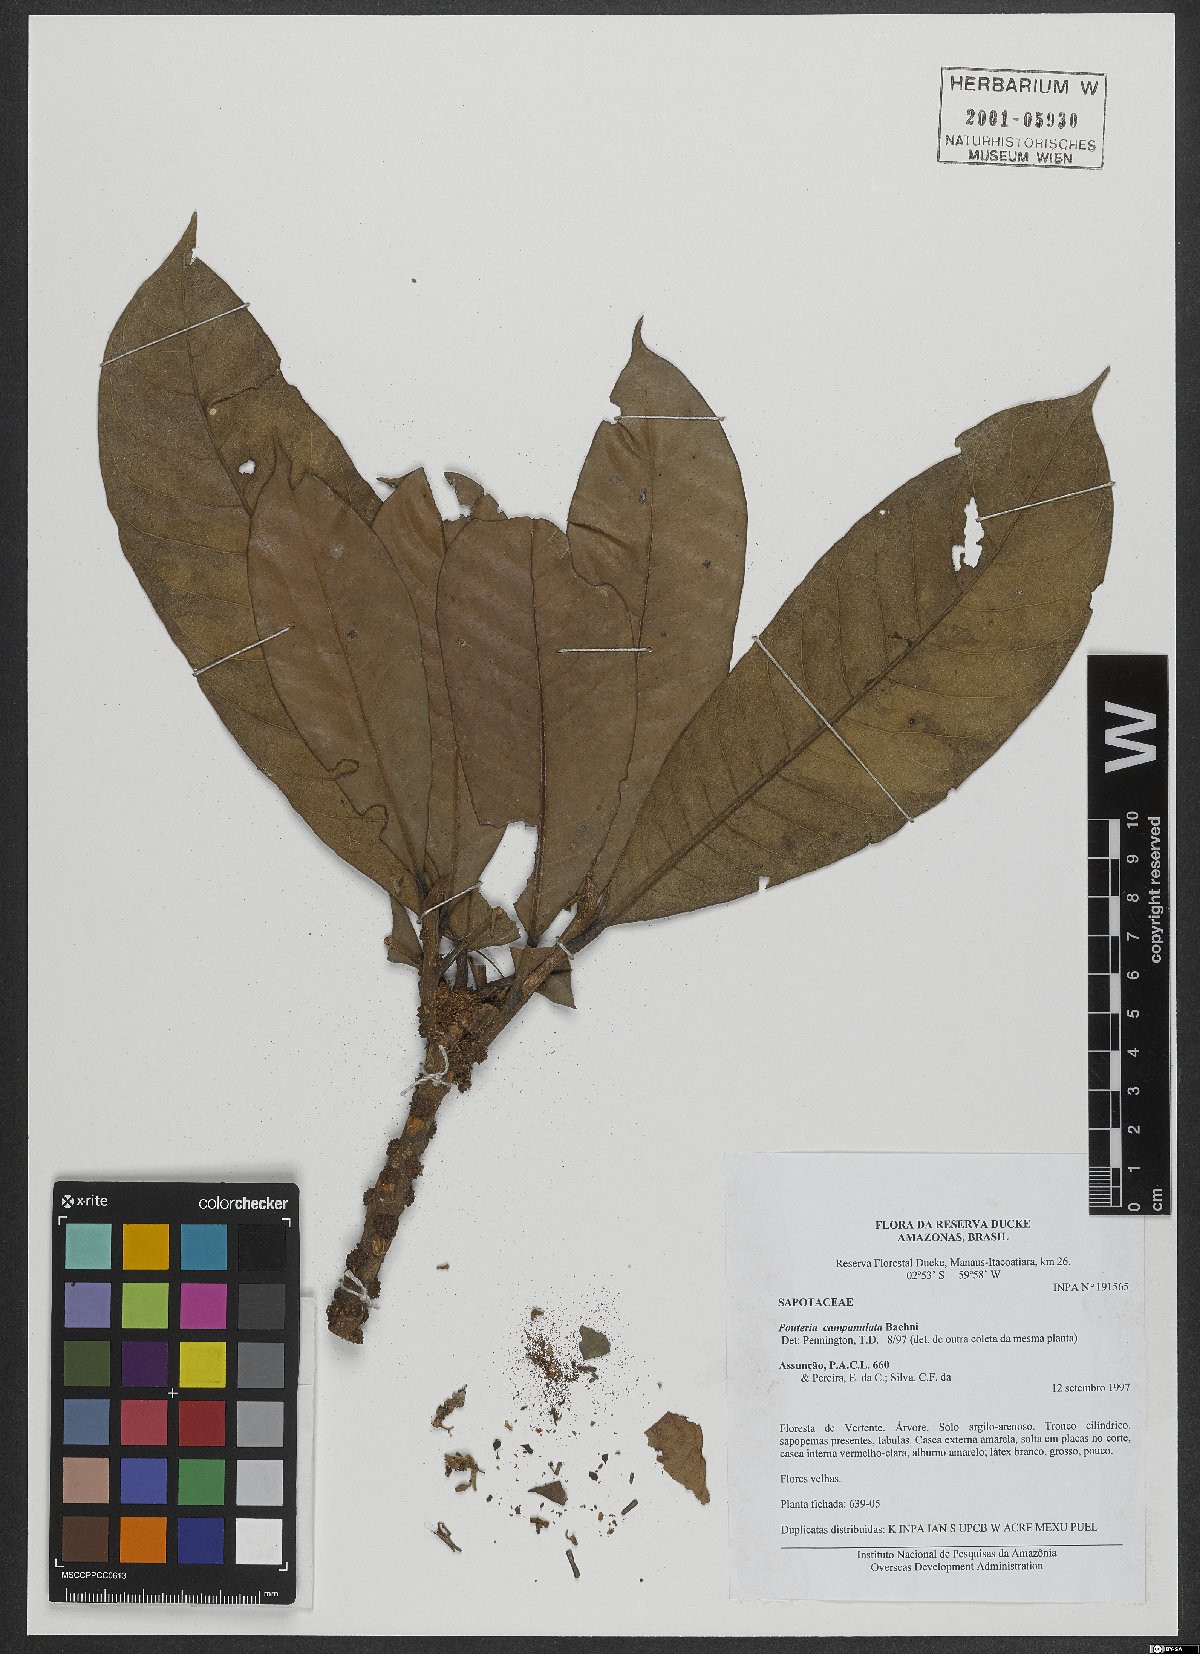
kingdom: Plantae
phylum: Tracheophyta
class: Magnoliopsida
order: Ericales
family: Sapotaceae
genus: Pouteria
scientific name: Pouteria campanulata
